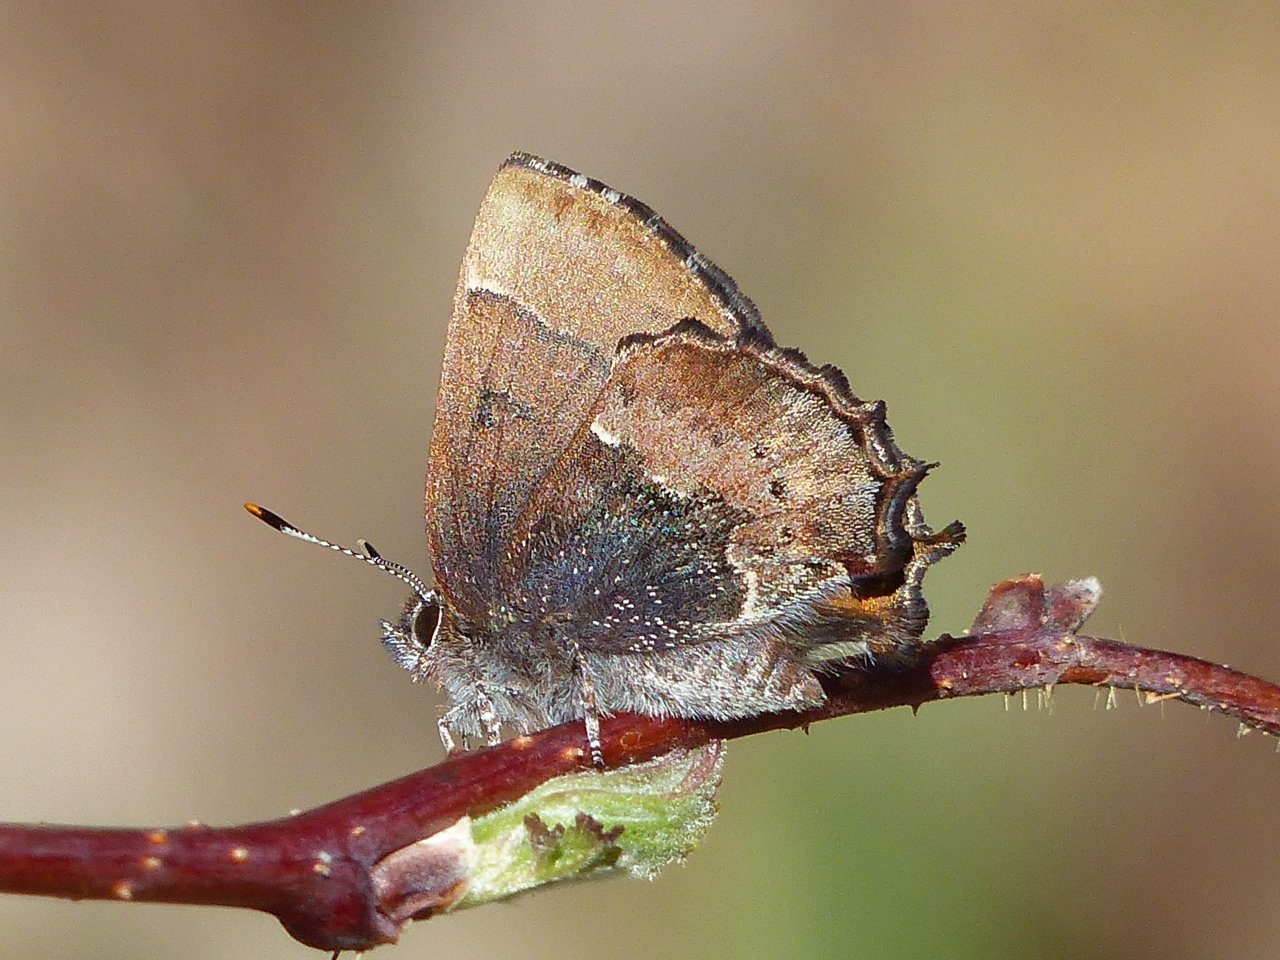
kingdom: Animalia
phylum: Arthropoda
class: Insecta
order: Lepidoptera
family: Lycaenidae
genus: Incisalia
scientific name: Incisalia henrici
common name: Henry's Elfin
